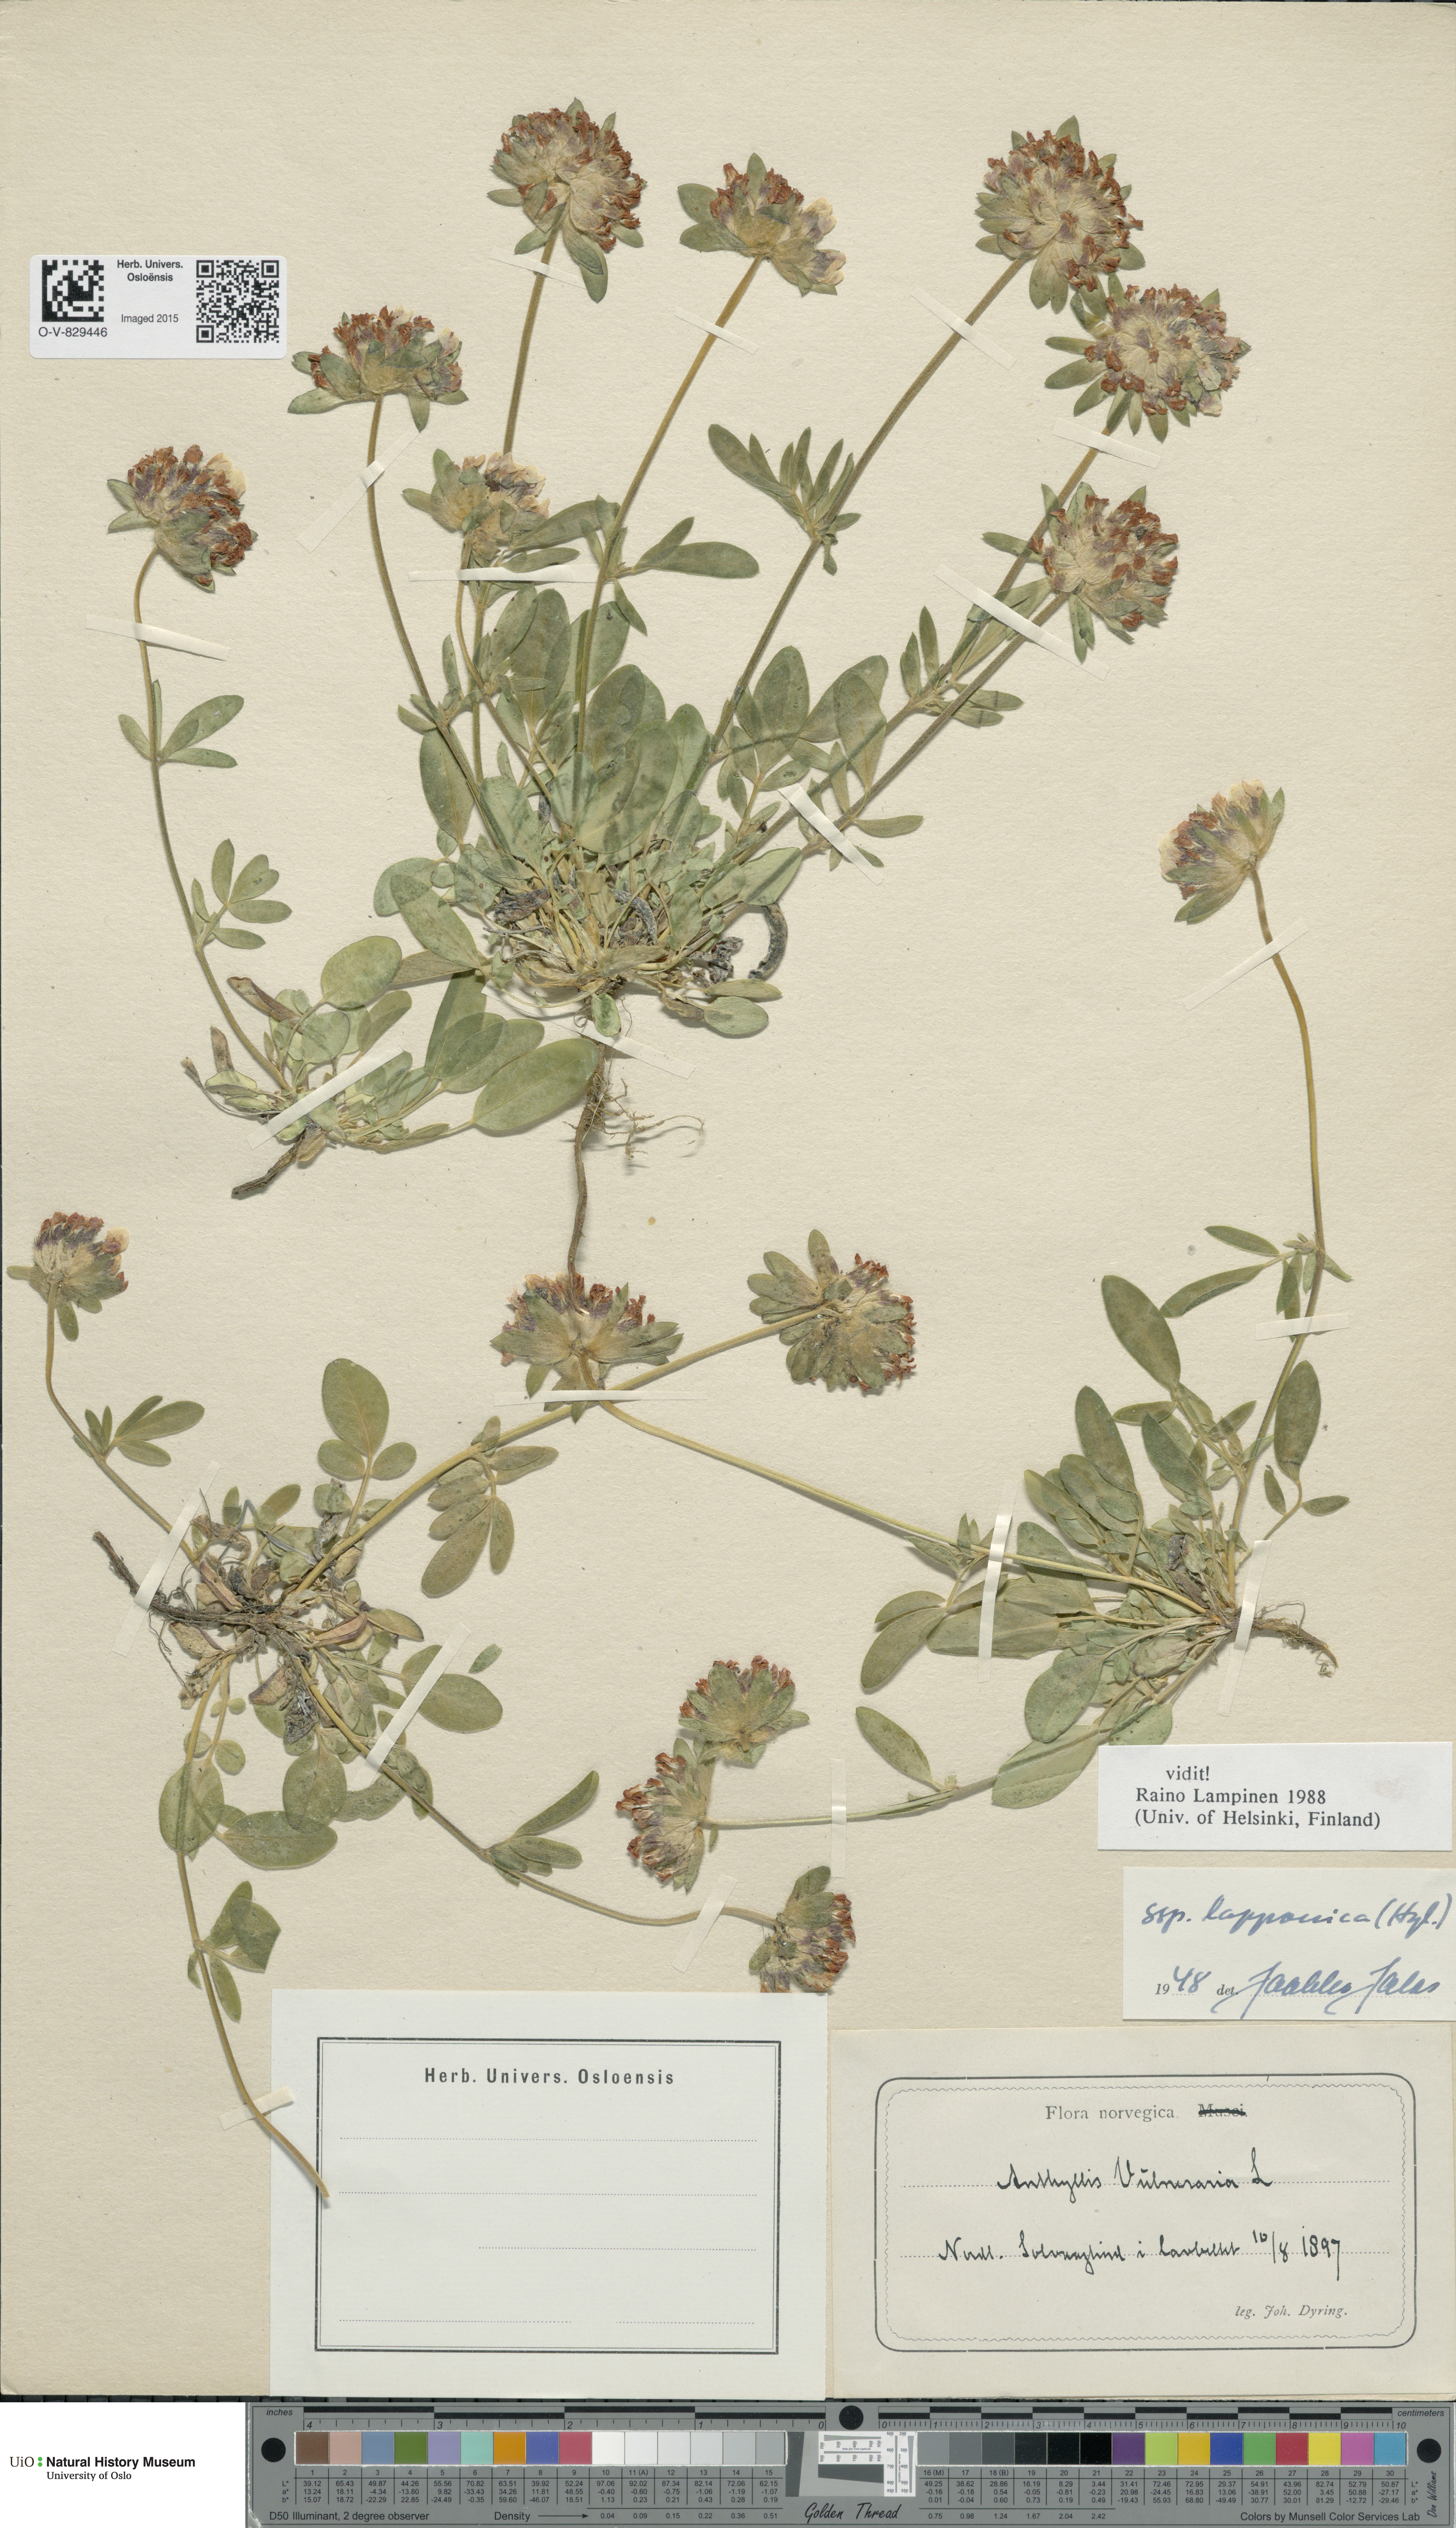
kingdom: Plantae
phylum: Tracheophyta
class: Magnoliopsida
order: Fabales
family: Fabaceae
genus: Anthyllis
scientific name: Anthyllis vulneraria
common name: Kidney vetch
